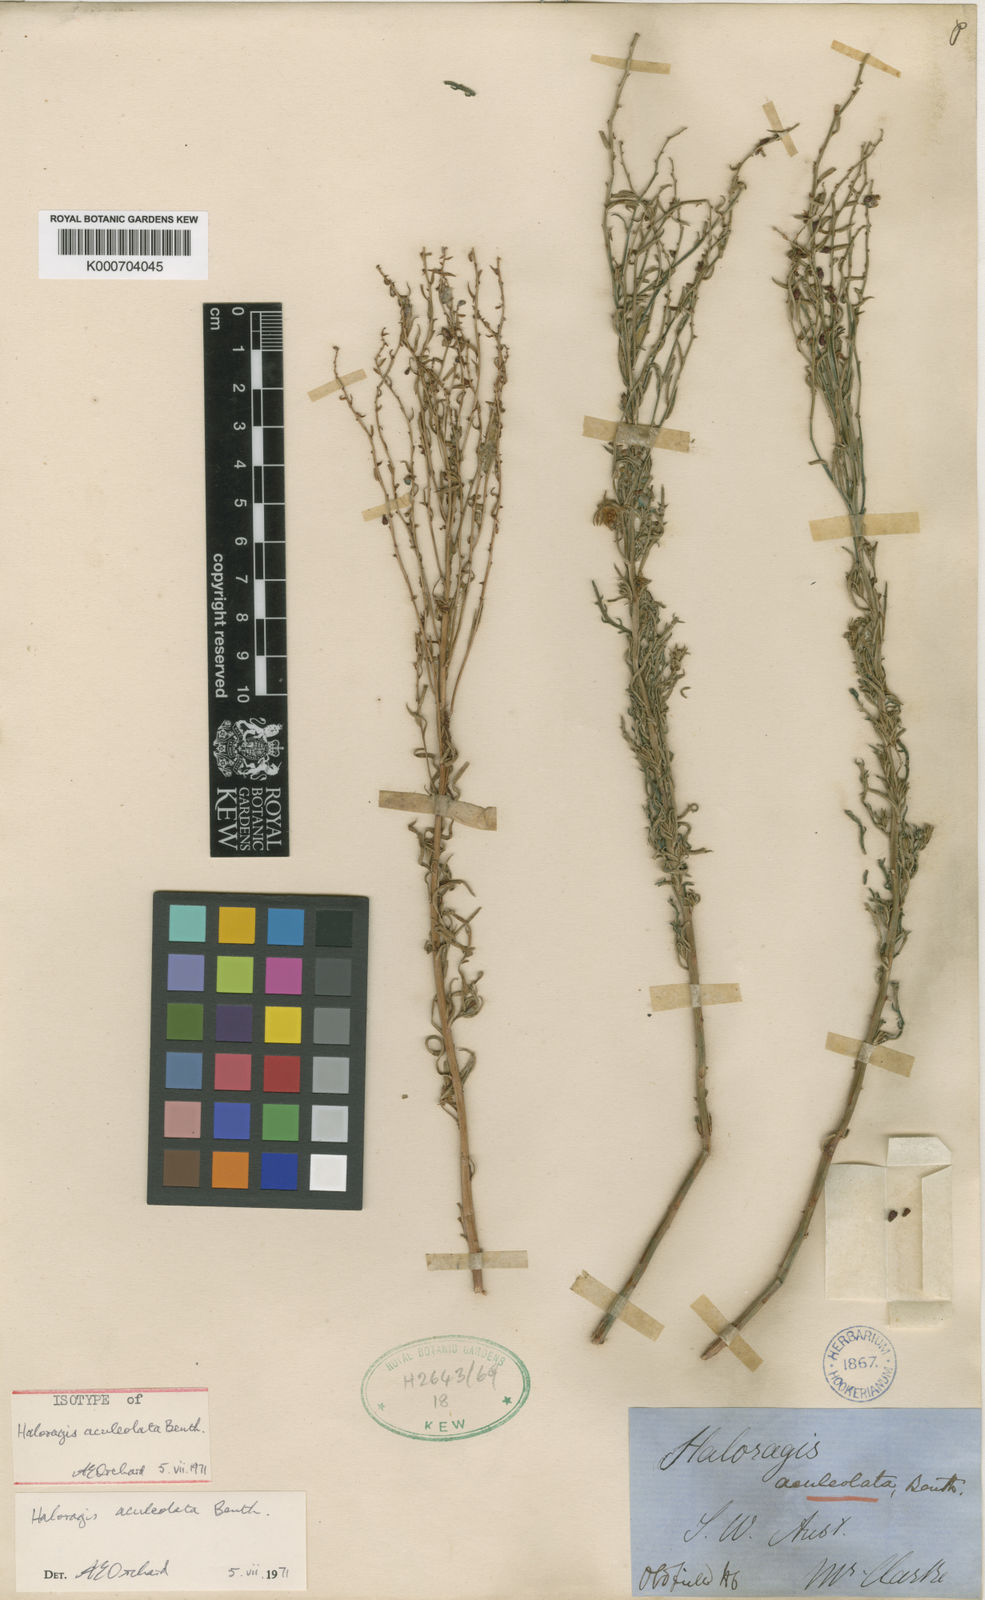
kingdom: Plantae
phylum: Tracheophyta
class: Magnoliopsida
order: Saxifragales
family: Haloragaceae
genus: Haloragis
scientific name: Haloragis aculeolata
